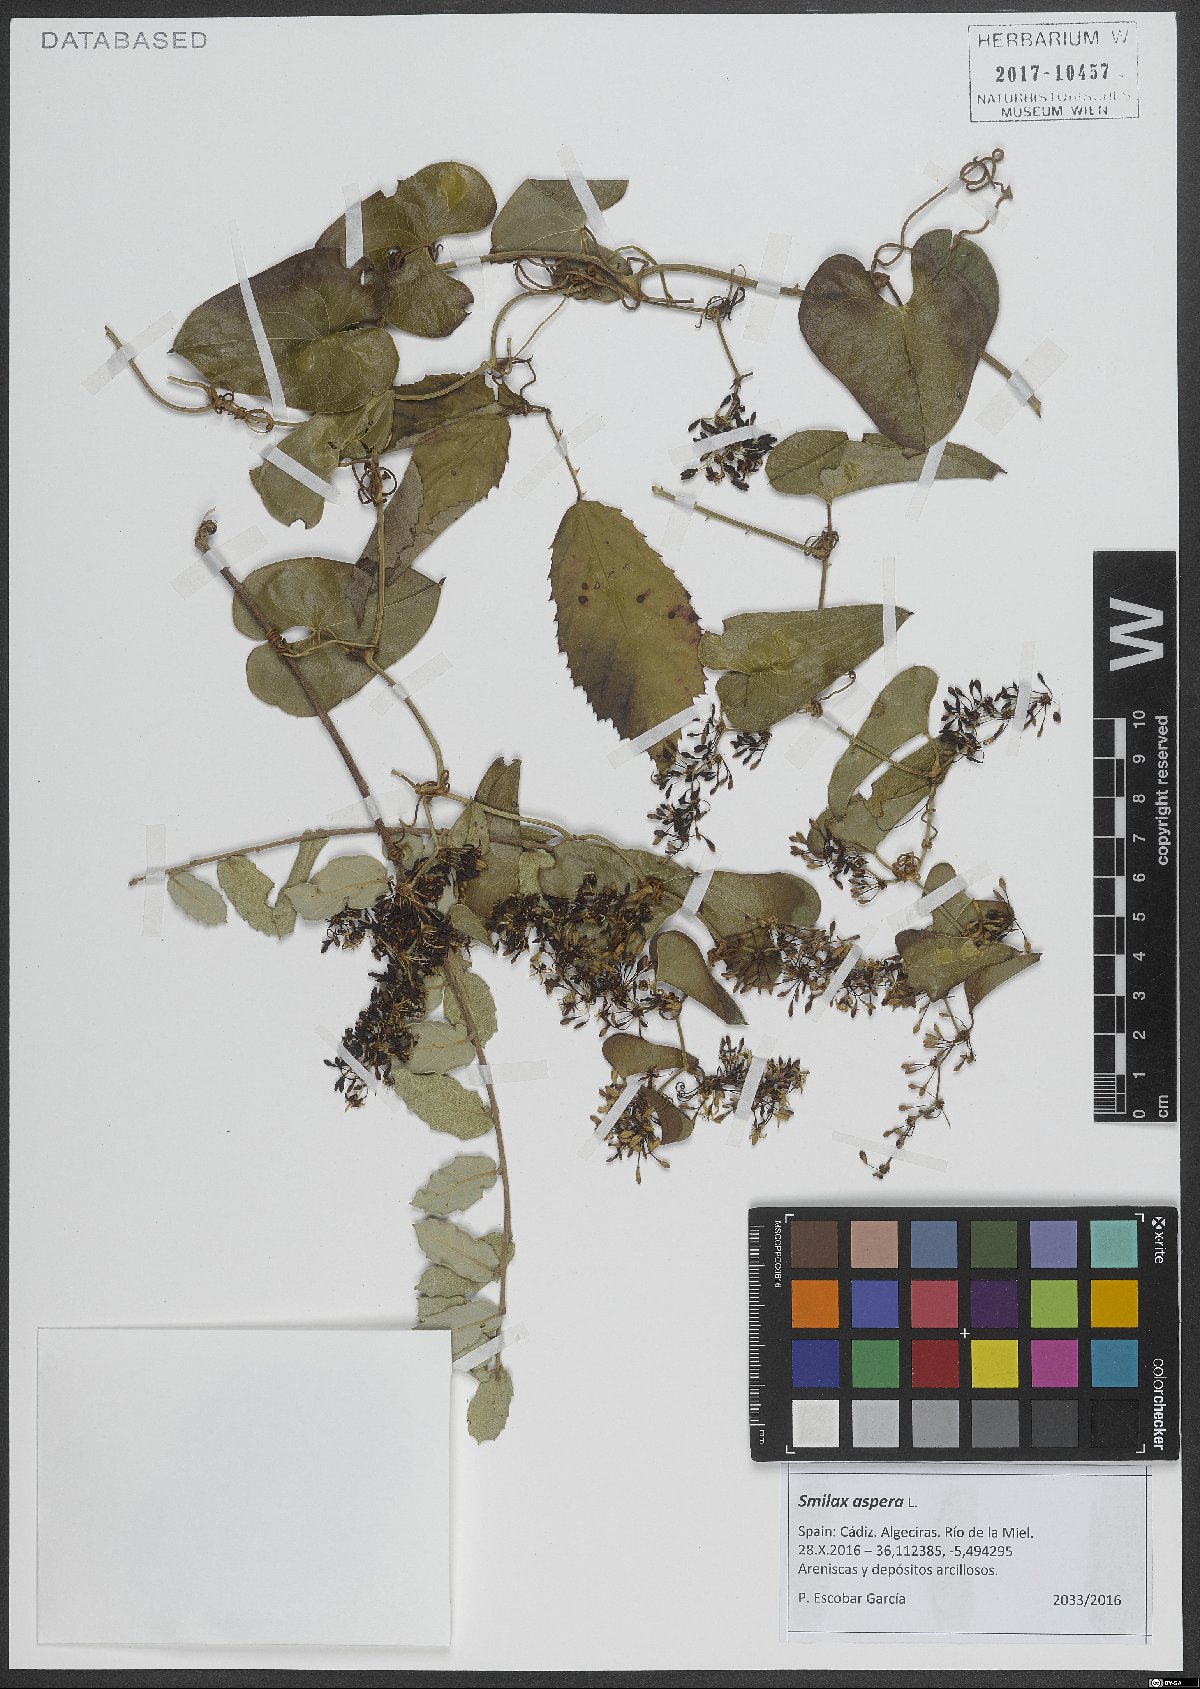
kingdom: Plantae
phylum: Tracheophyta
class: Liliopsida
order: Liliales
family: Smilacaceae
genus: Smilax
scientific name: Smilax aspera
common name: Common smilax
